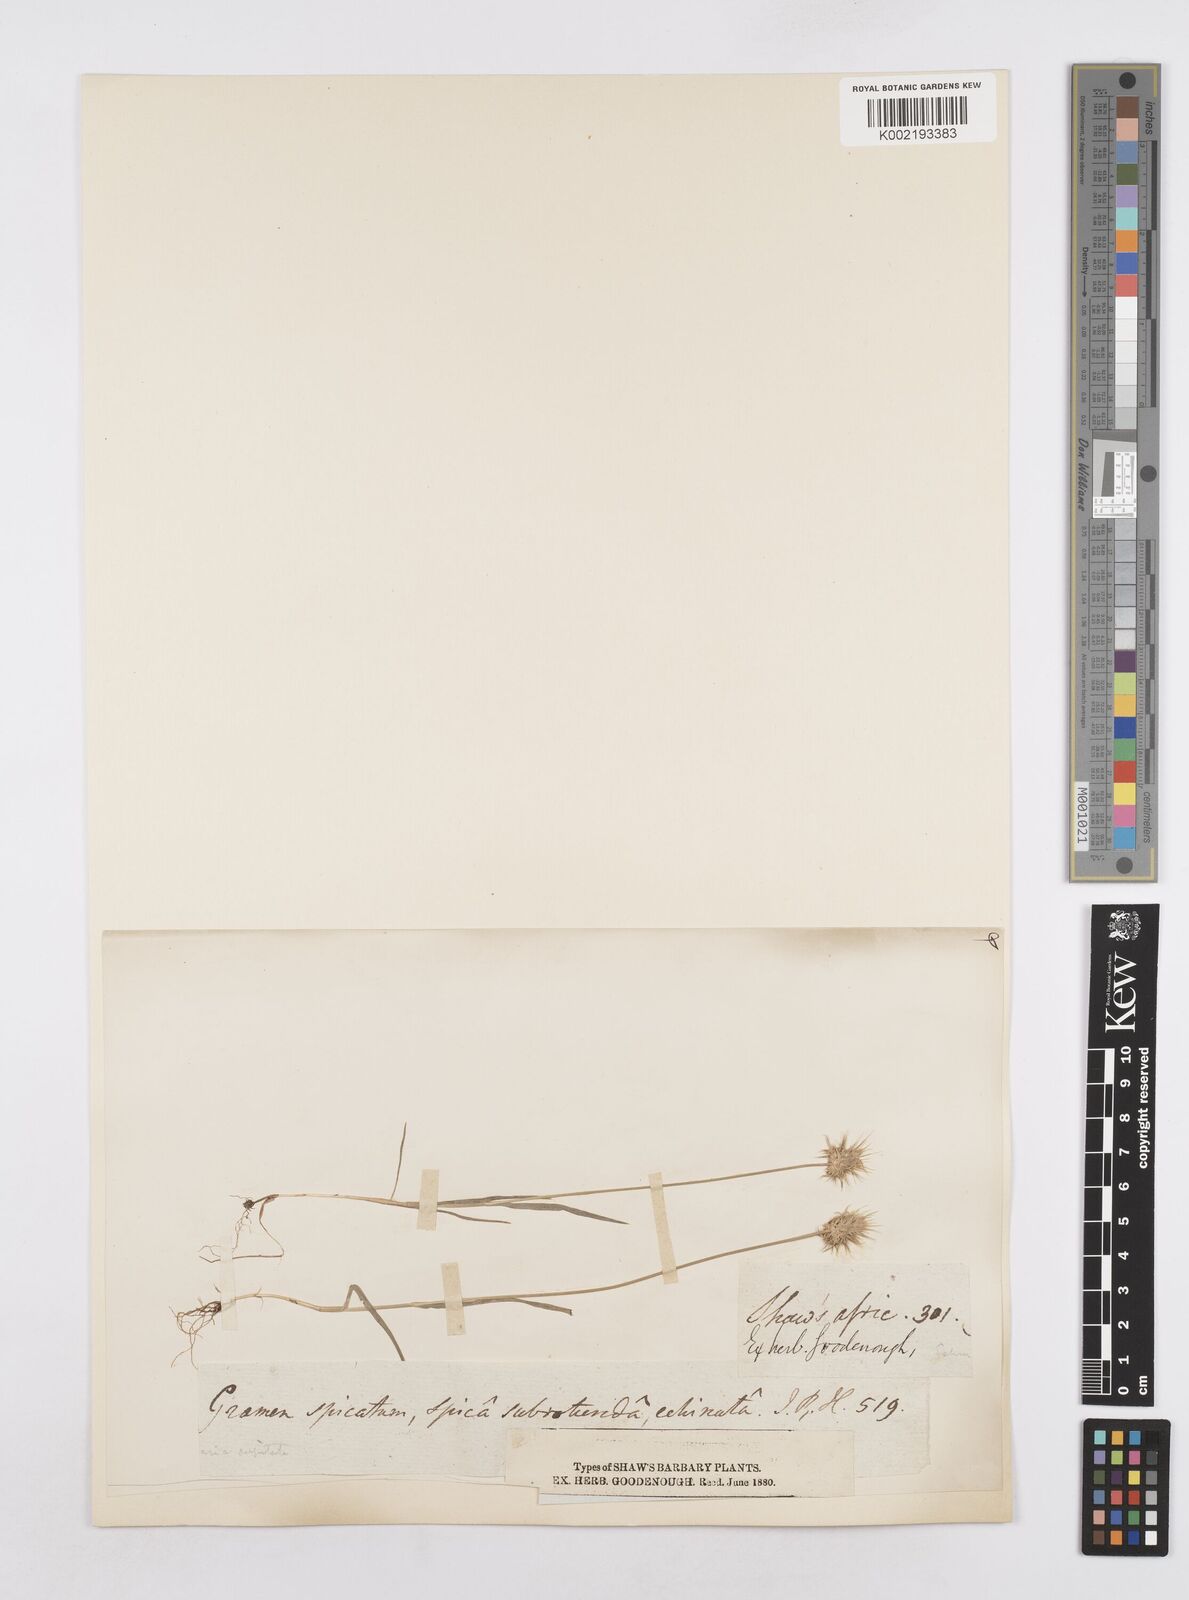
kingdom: Plantae
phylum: Tracheophyta
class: Liliopsida
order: Poales
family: Poaceae
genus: Echinaria
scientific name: Echinaria capitata
